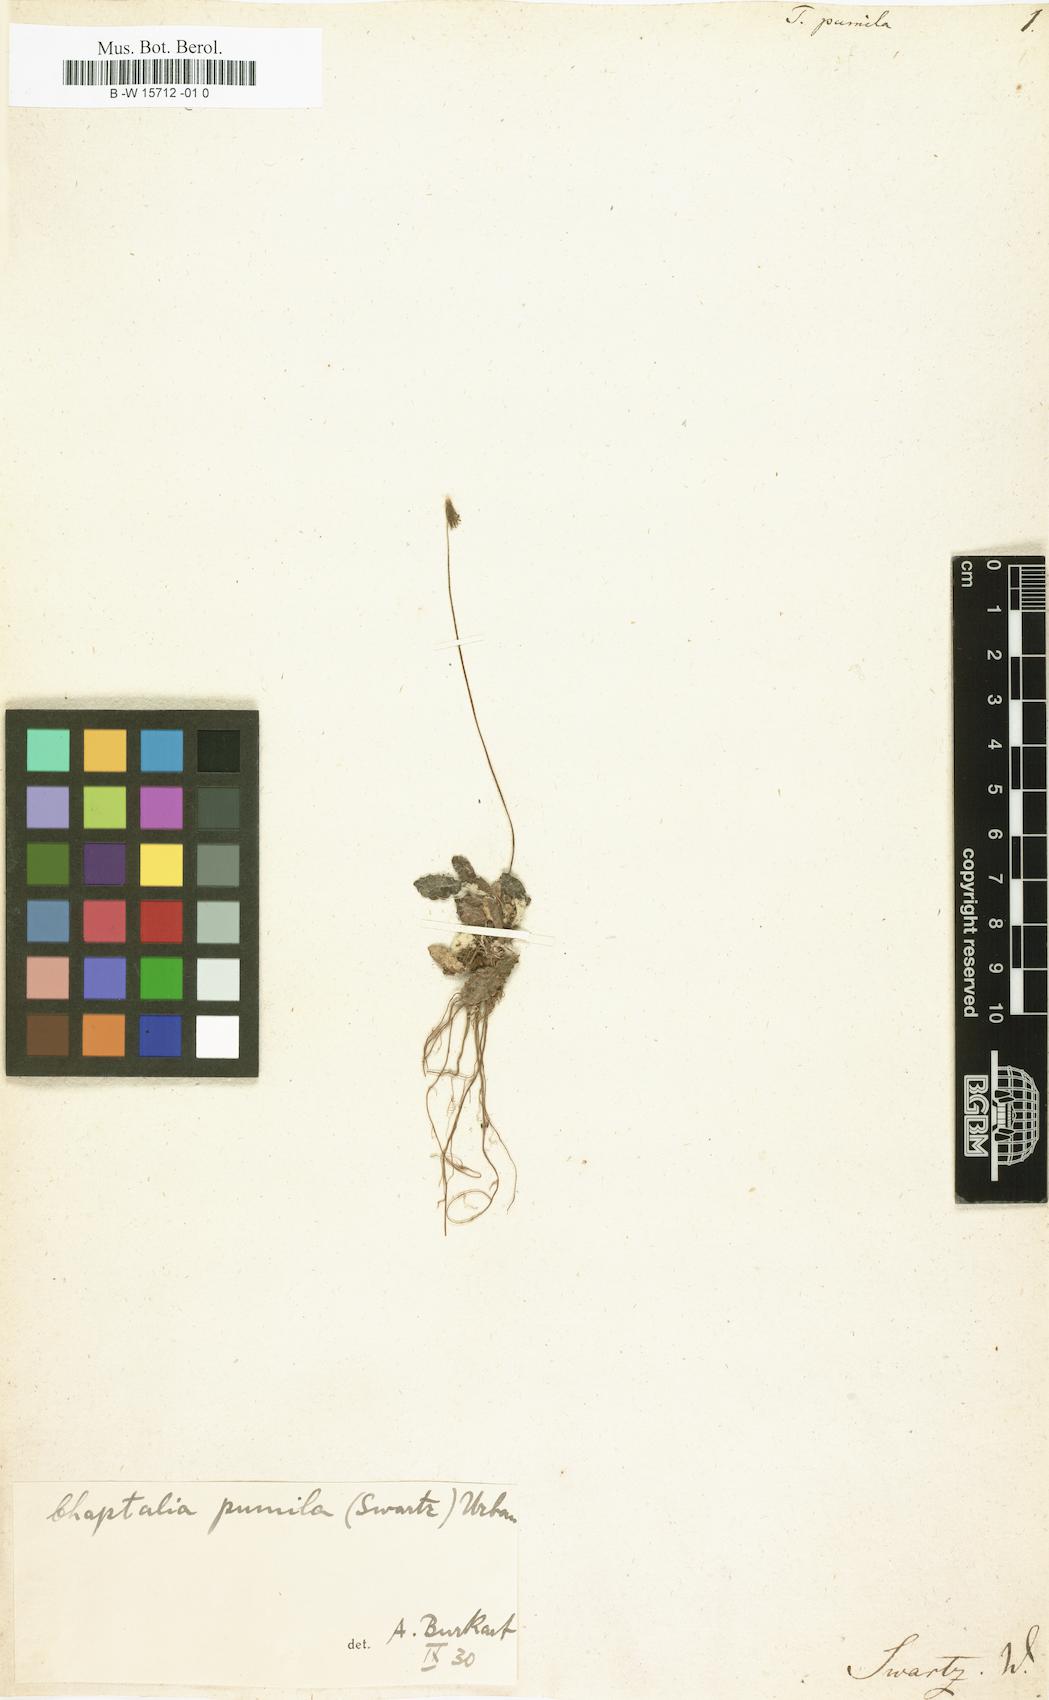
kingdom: Plantae
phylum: Tracheophyta
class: Magnoliopsida
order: Asterales
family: Asteraceae
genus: Chaptalia
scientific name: Chaptalia pumila
